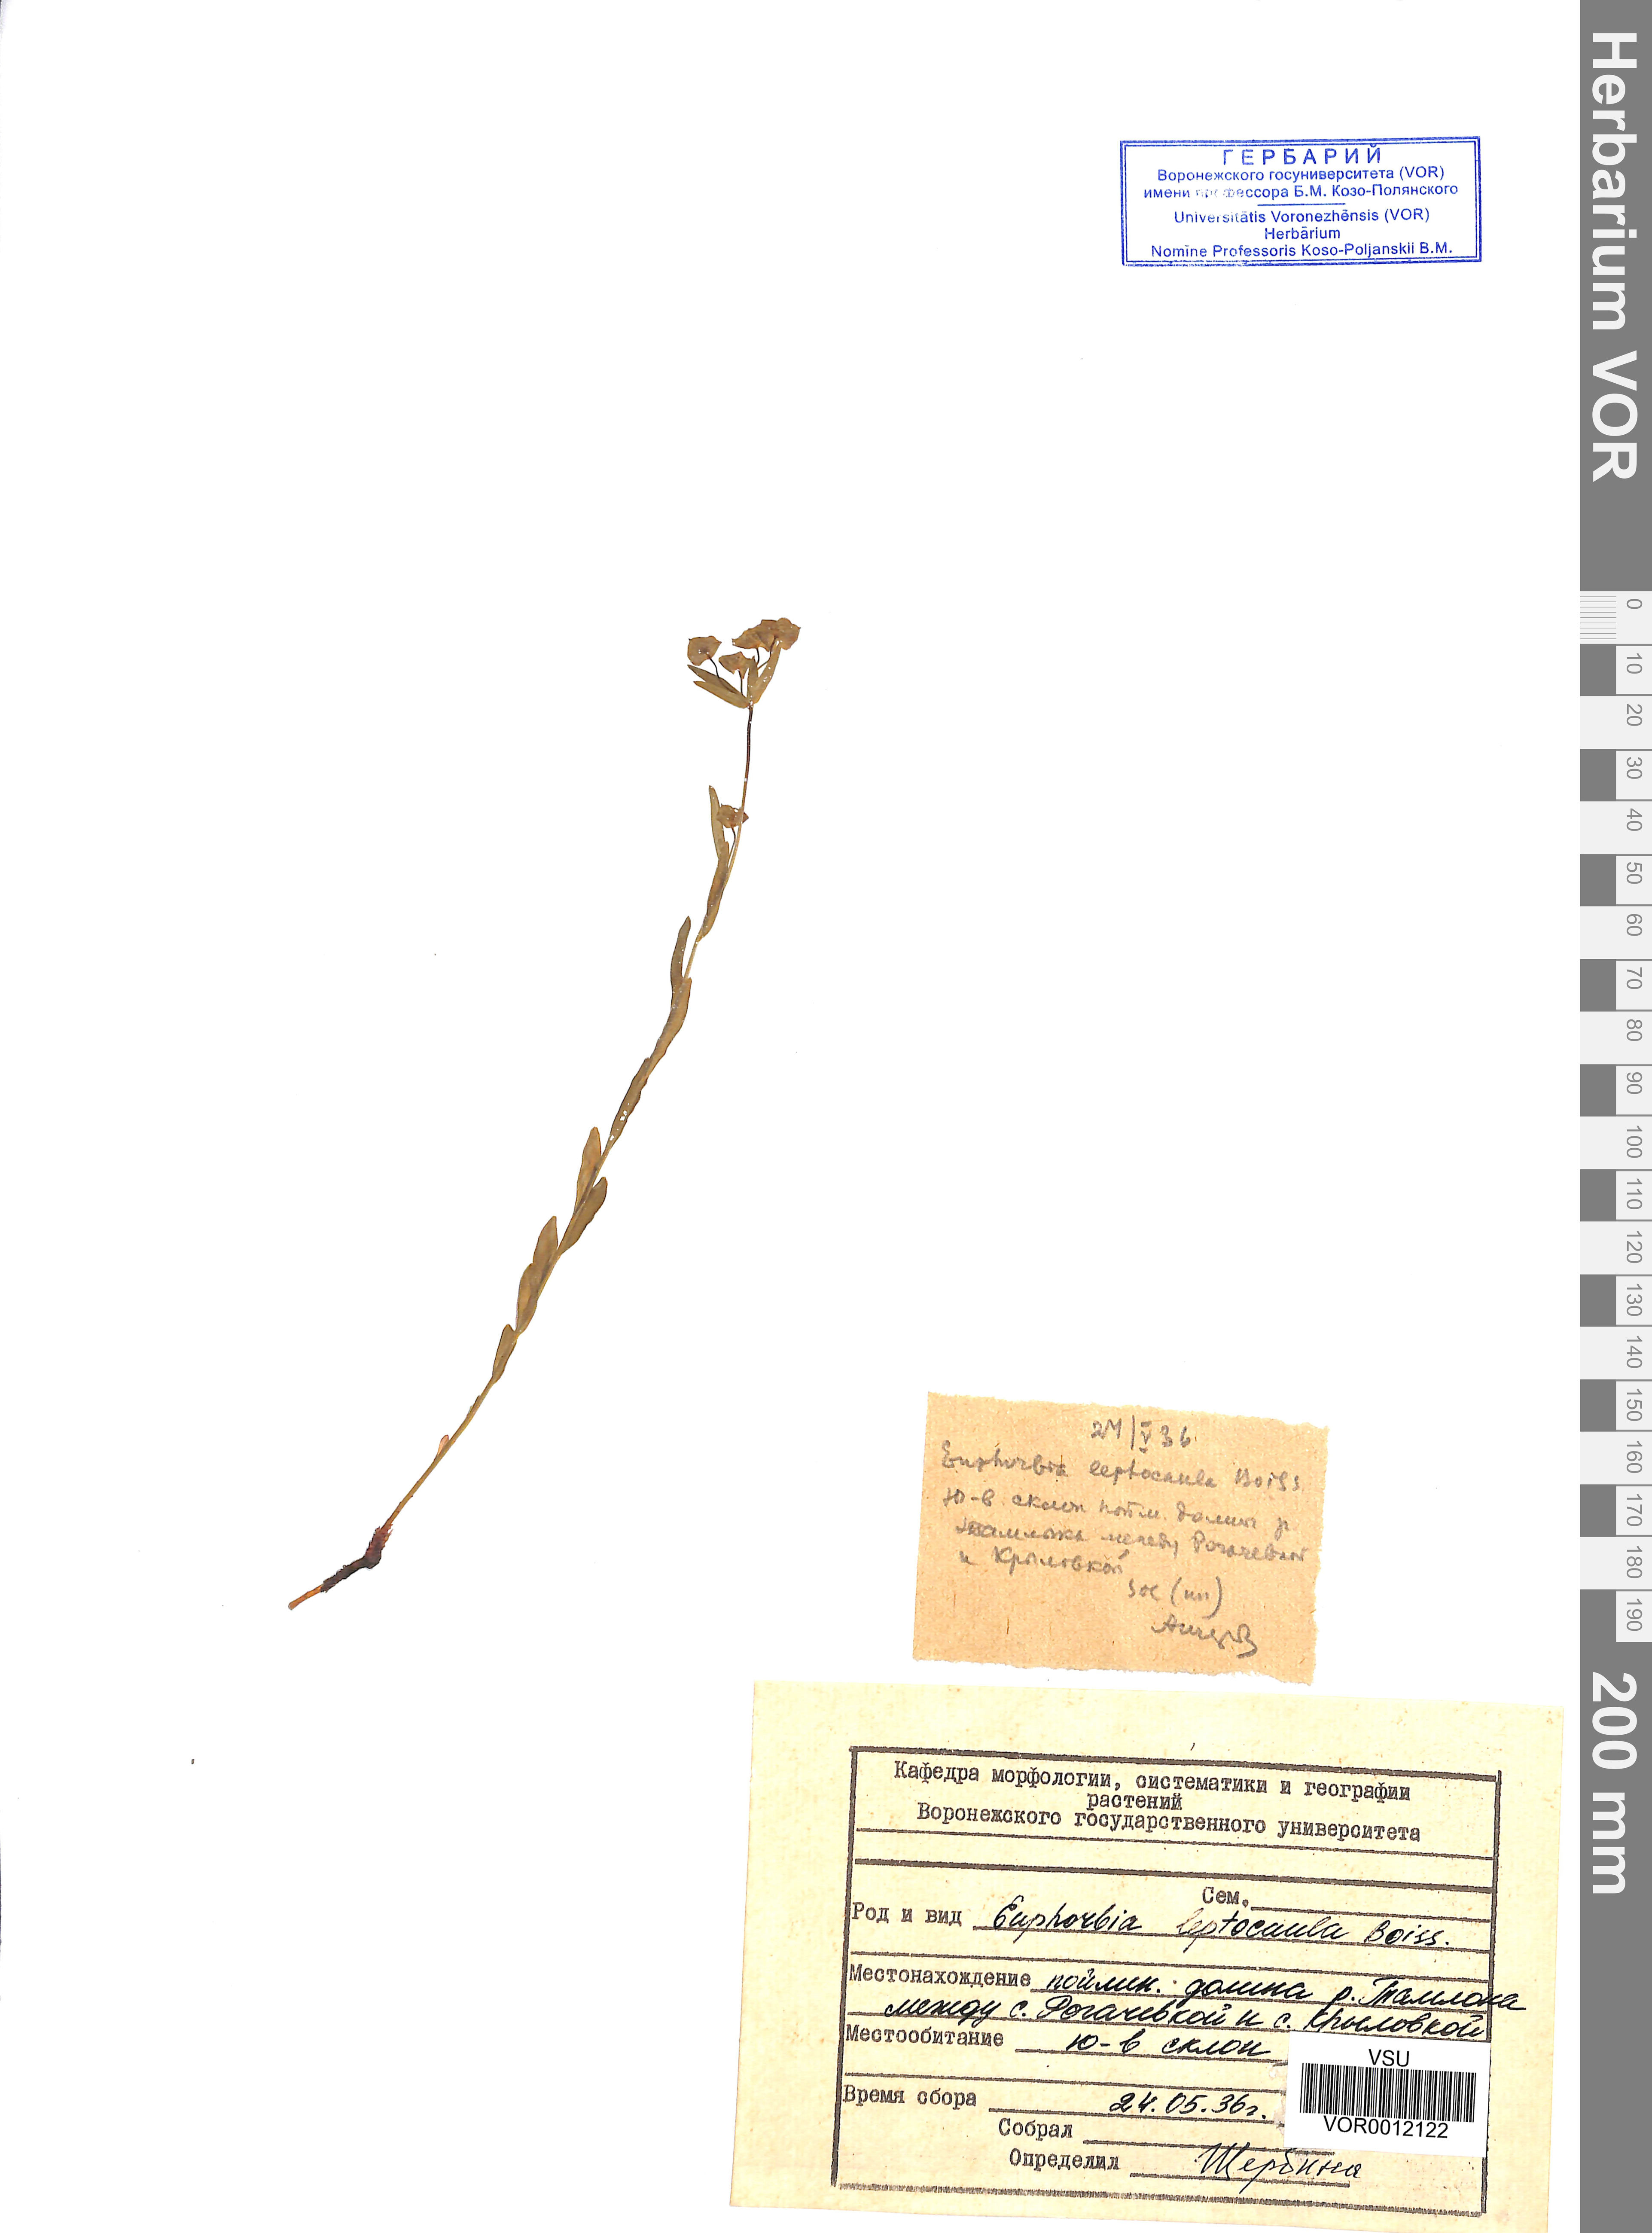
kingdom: Plantae
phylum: Tracheophyta
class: Magnoliopsida
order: Malpighiales
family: Euphorbiaceae
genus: Euphorbia
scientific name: Euphorbia leptocaula
